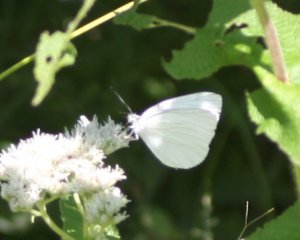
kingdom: Animalia
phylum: Arthropoda
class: Insecta
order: Lepidoptera
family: Pieridae
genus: Pieris
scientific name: Pieris oleracea
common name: Mustard White
